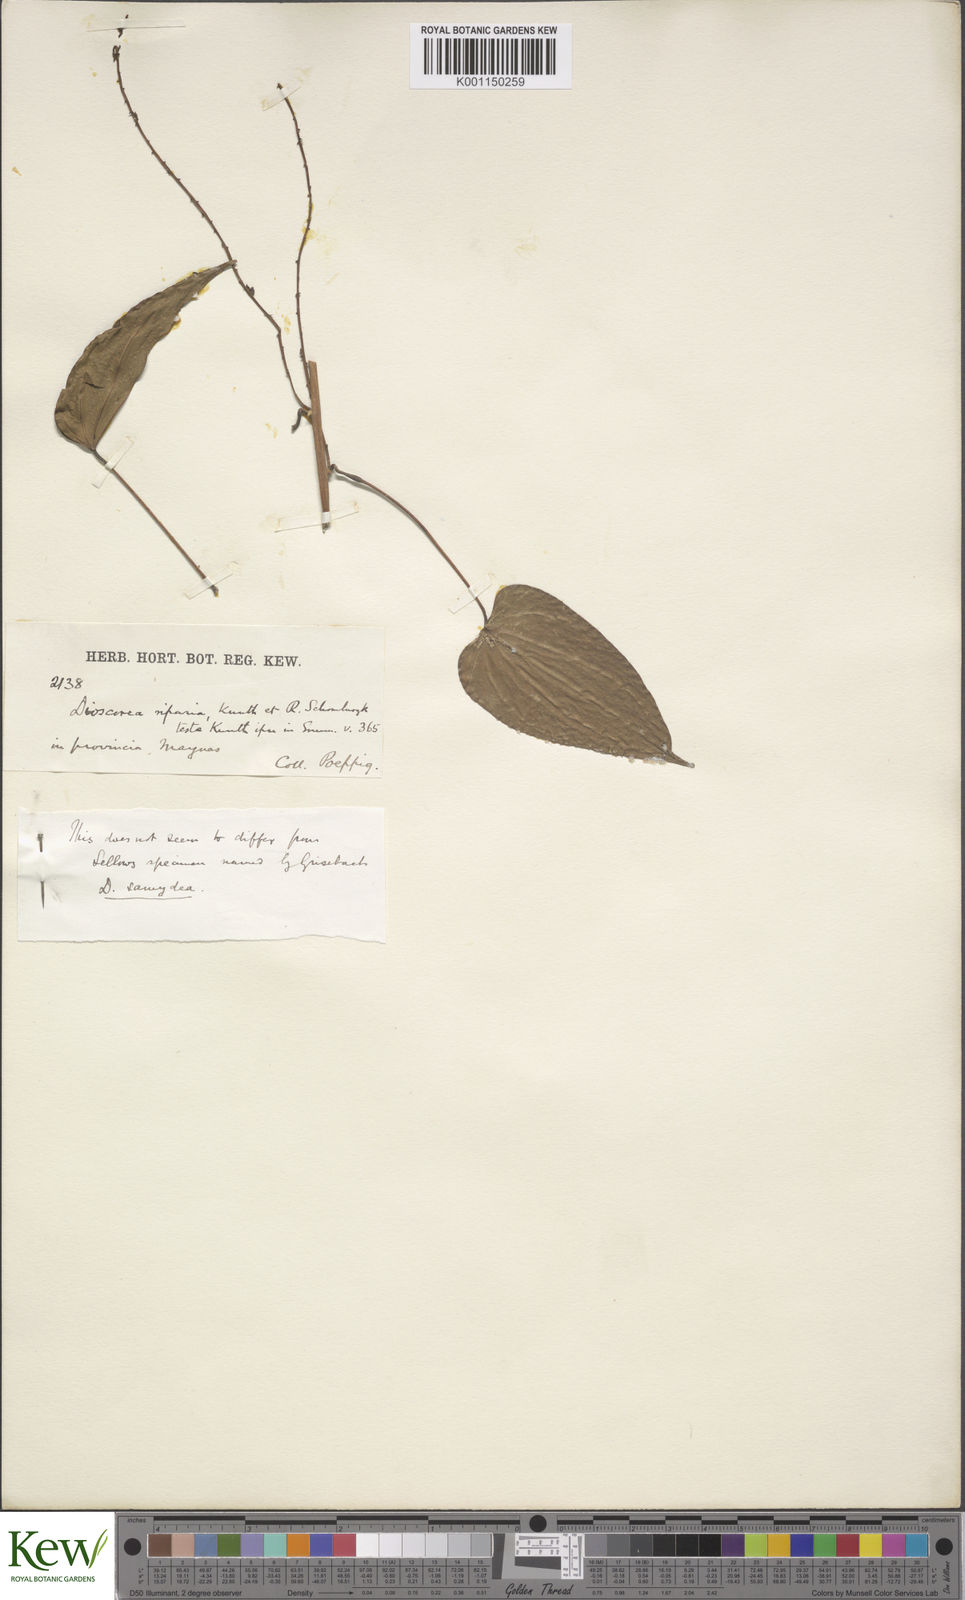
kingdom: Plantae
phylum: Tracheophyta
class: Liliopsida
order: Dioscoreales
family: Dioscoreaceae
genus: Dioscorea
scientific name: Dioscorea chondrocarpa
